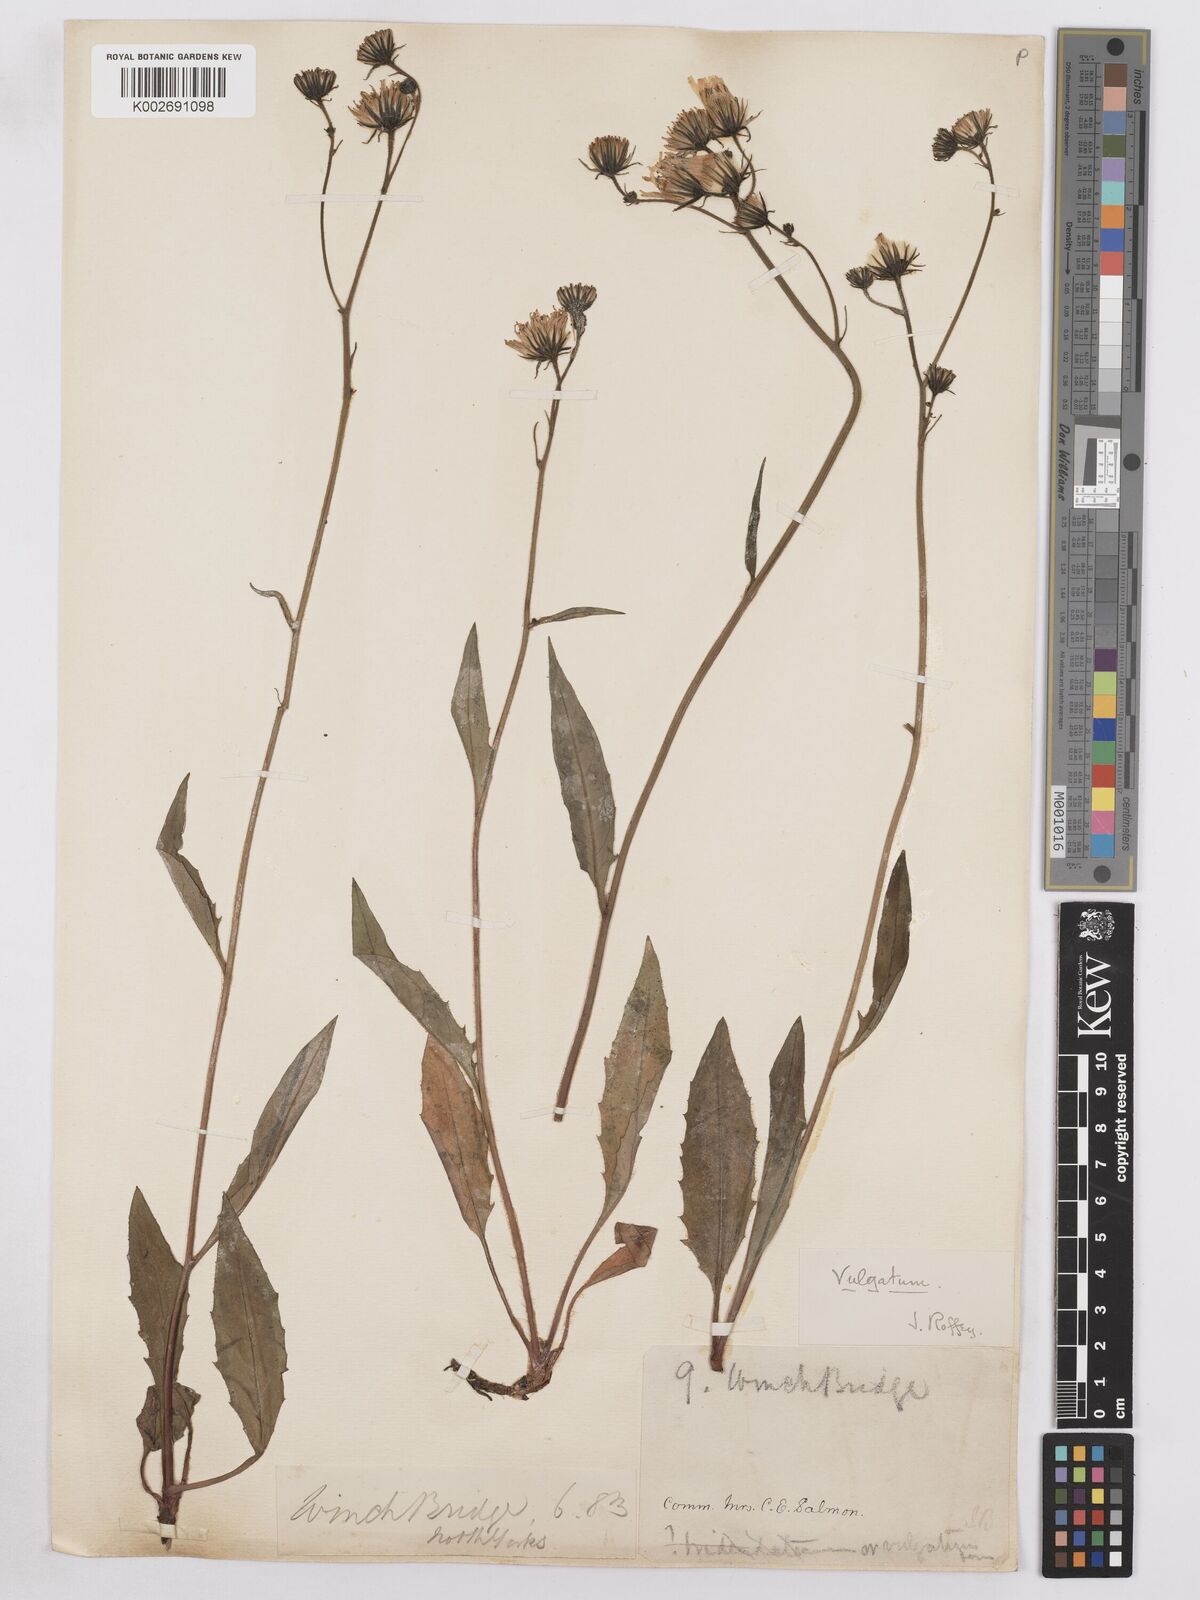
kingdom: Plantae
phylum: Tracheophyta
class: Magnoliopsida
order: Asterales
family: Asteraceae
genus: Hieracium
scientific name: Hieracium lachenalii
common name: Common hawkweed
